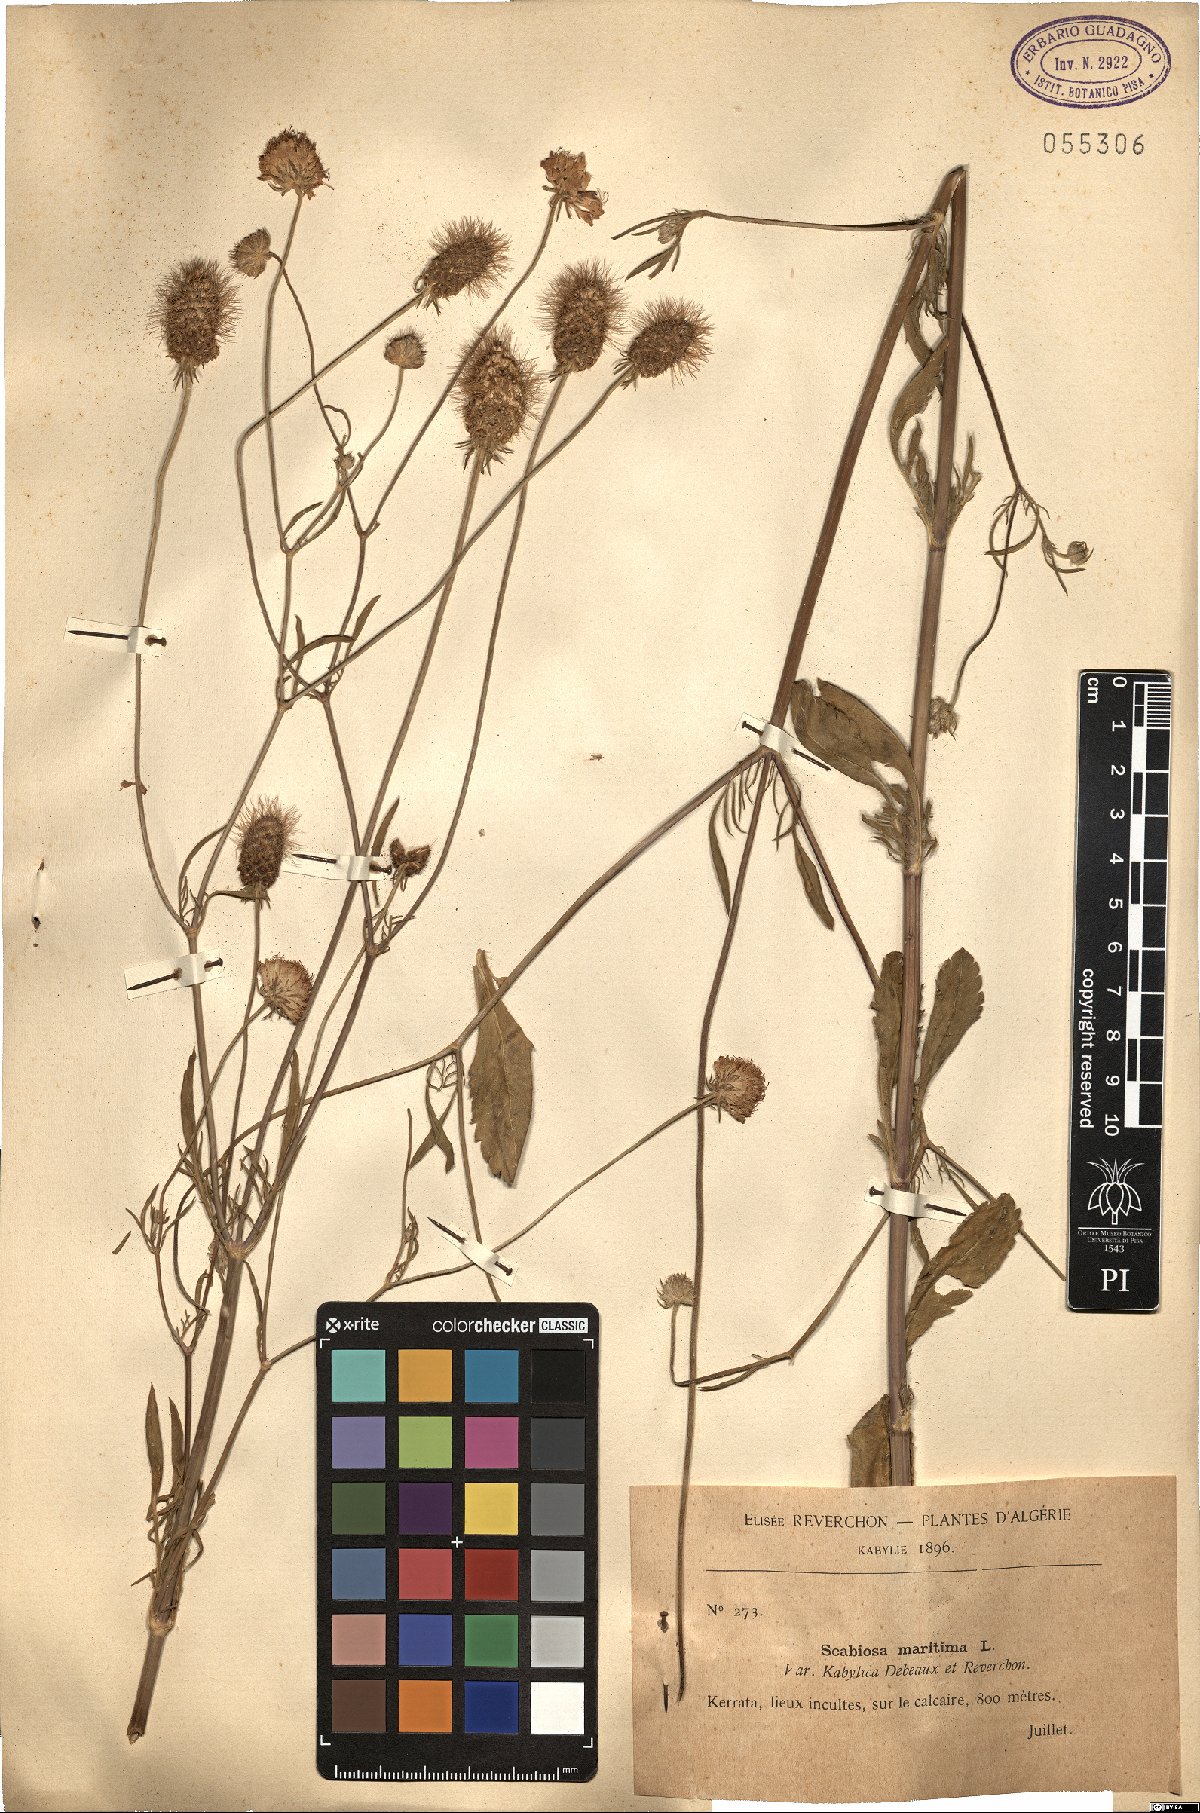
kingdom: Plantae
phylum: Tracheophyta
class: Magnoliopsida
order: Dipsacales
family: Caprifoliaceae
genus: Scabiosa
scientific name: Scabiosa maritima
